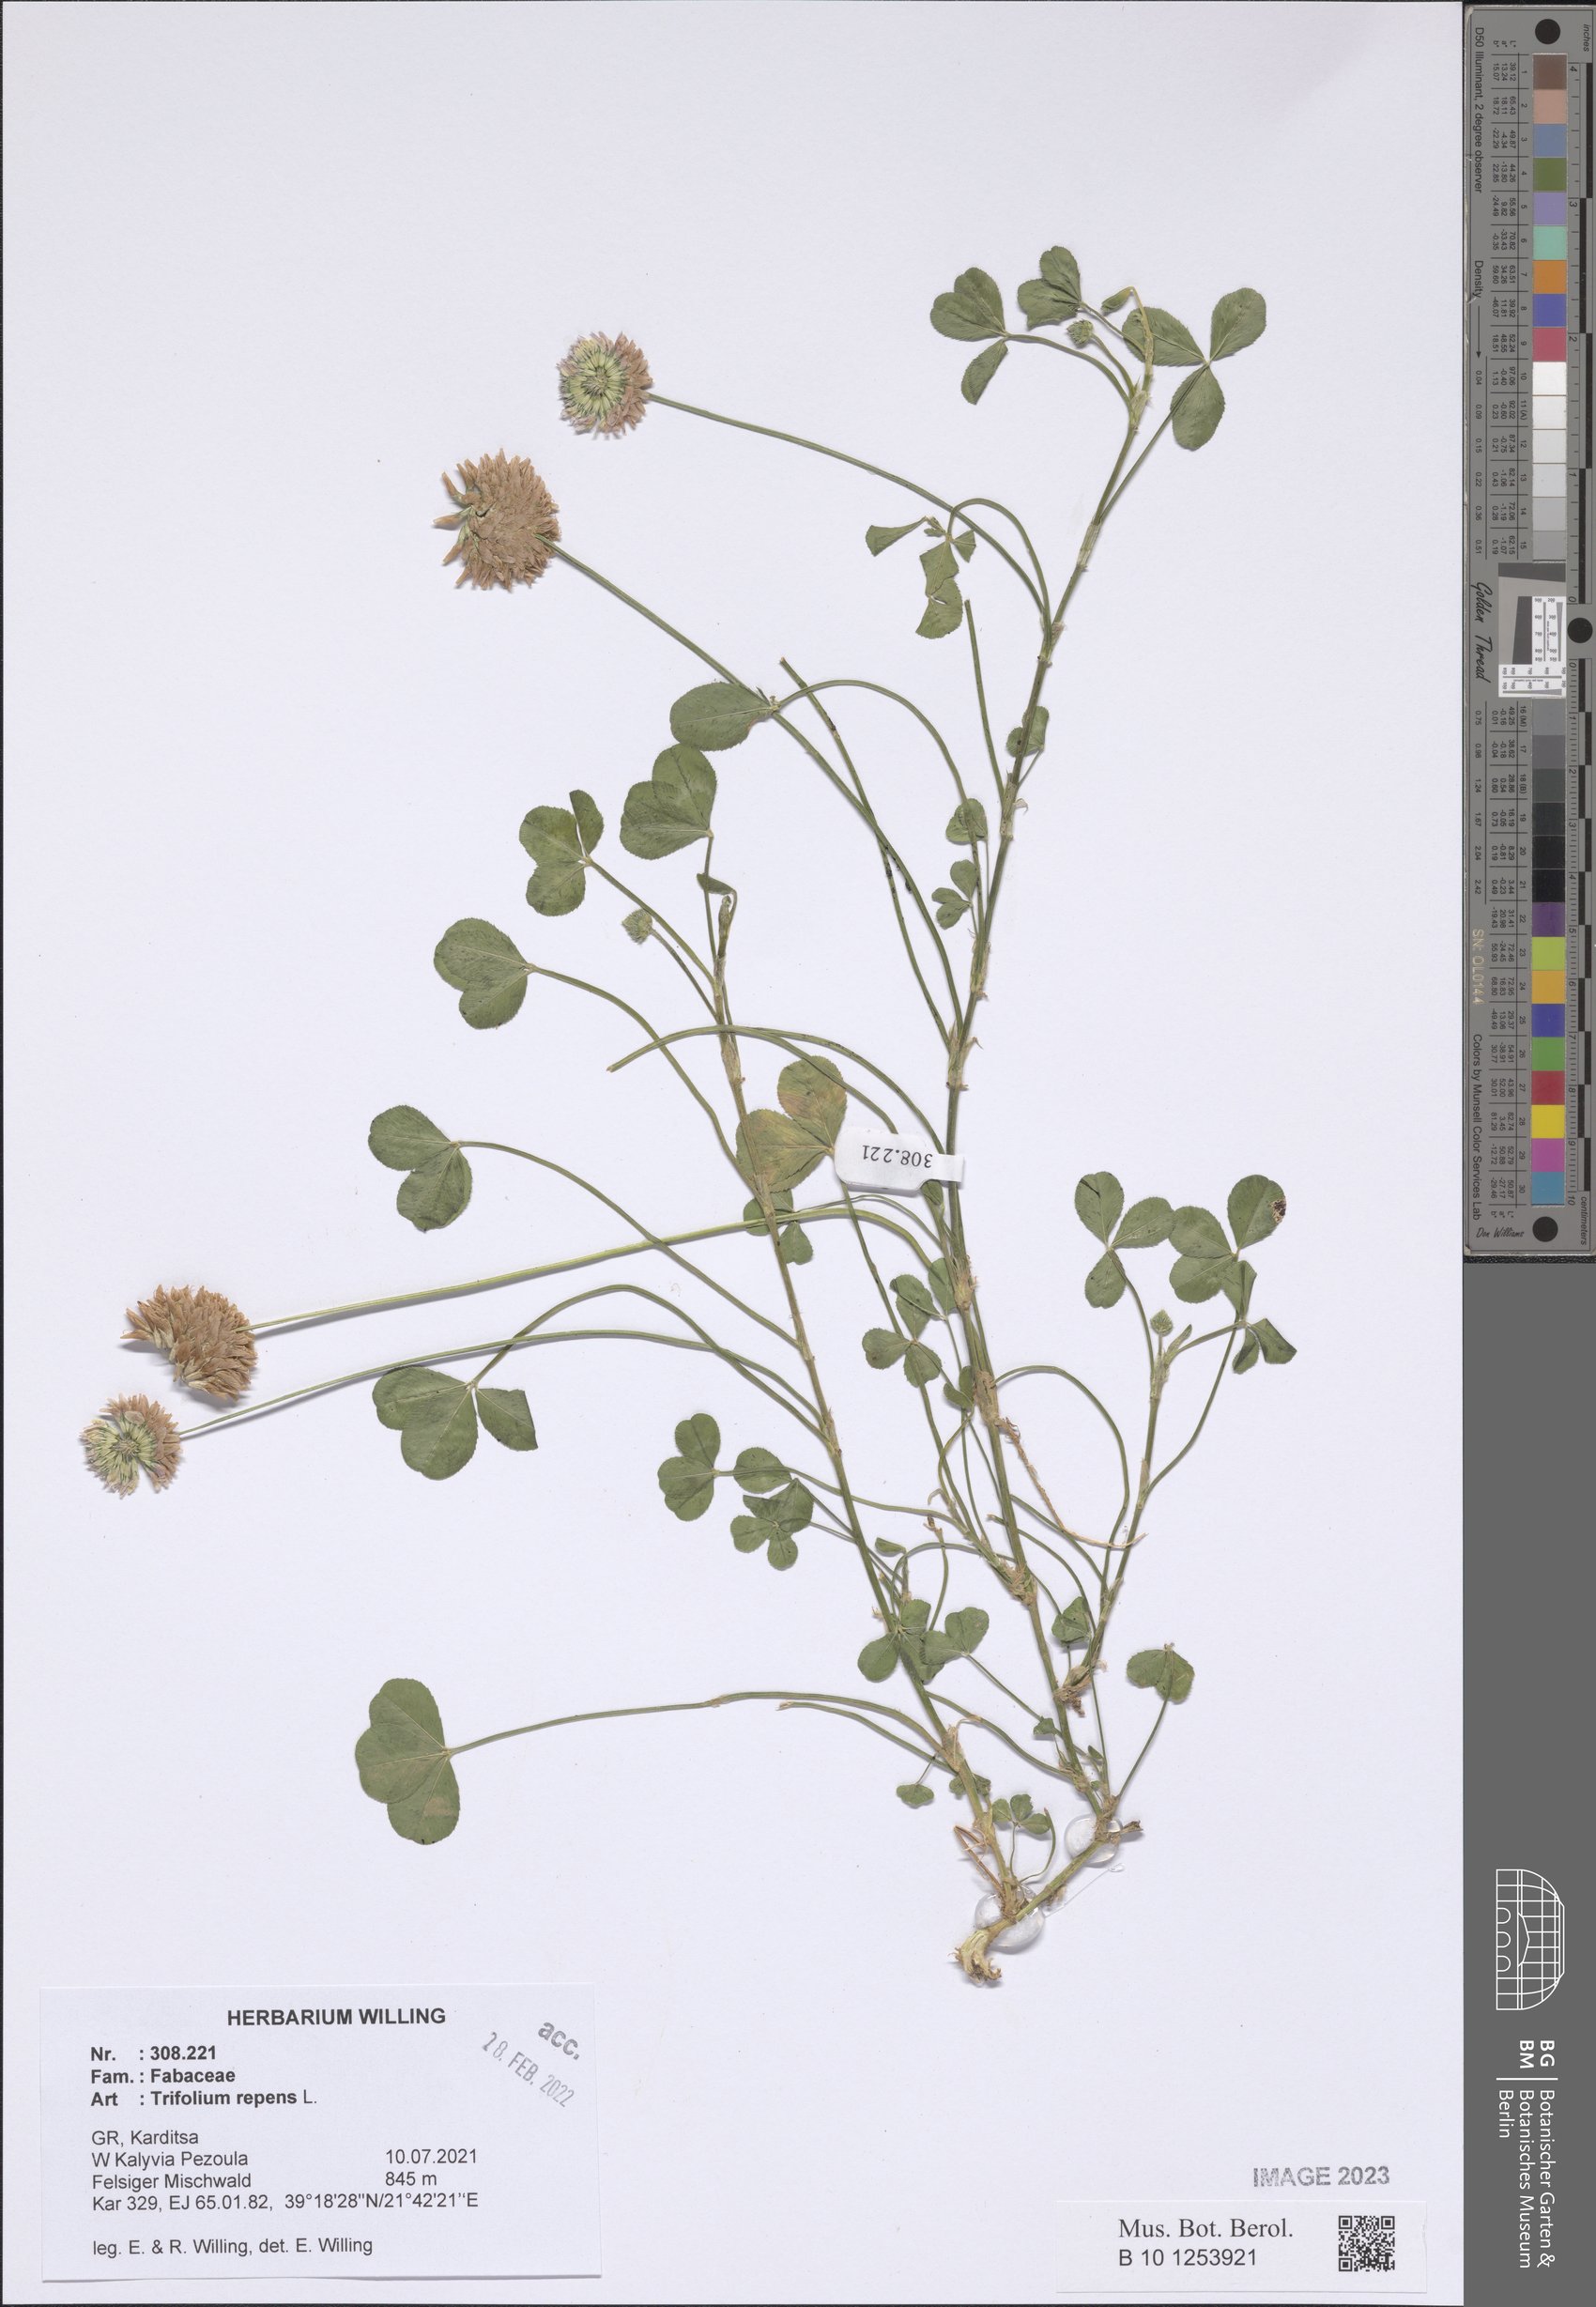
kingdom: Plantae
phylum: Tracheophyta
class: Magnoliopsida
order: Fabales
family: Fabaceae
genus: Trifolium
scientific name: Trifolium repens
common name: White clover
